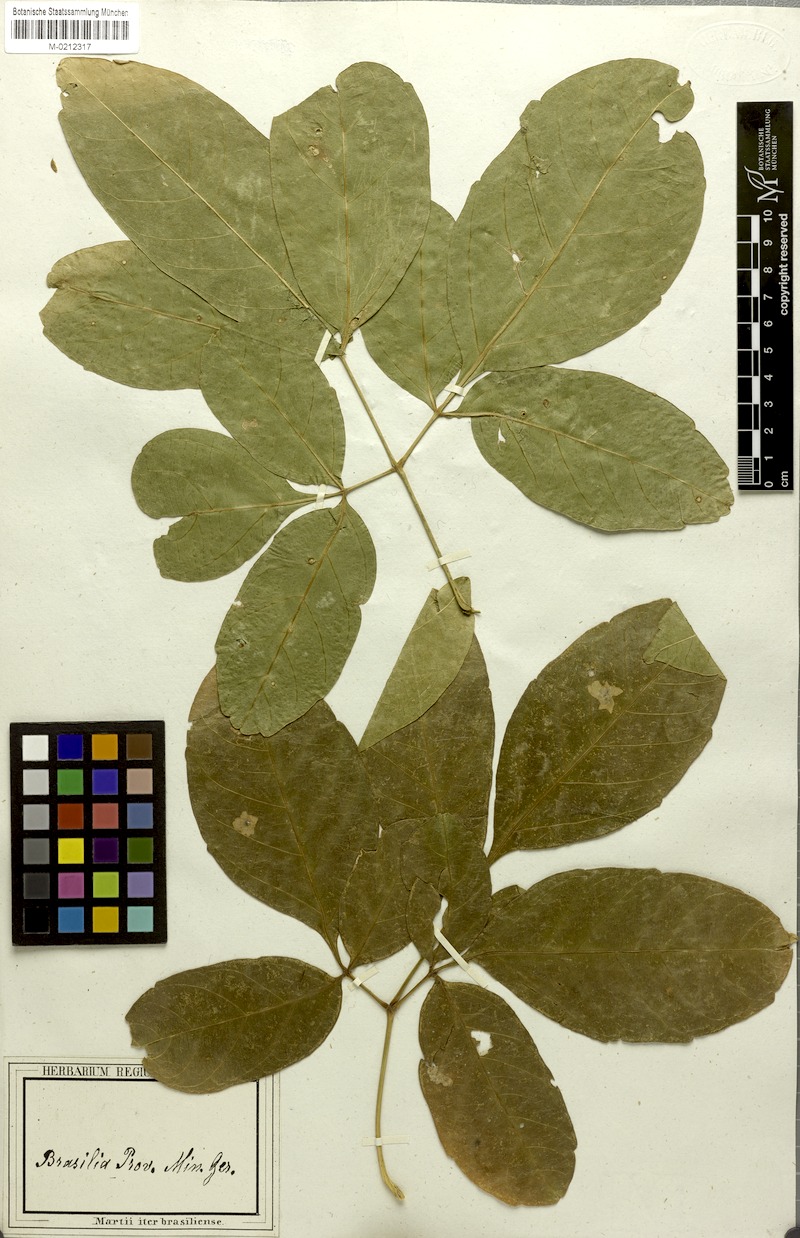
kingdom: Plantae
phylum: Tracheophyta
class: Magnoliopsida
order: Sapindales
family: Sapindaceae
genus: Serjania
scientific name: Serjania caracasana
